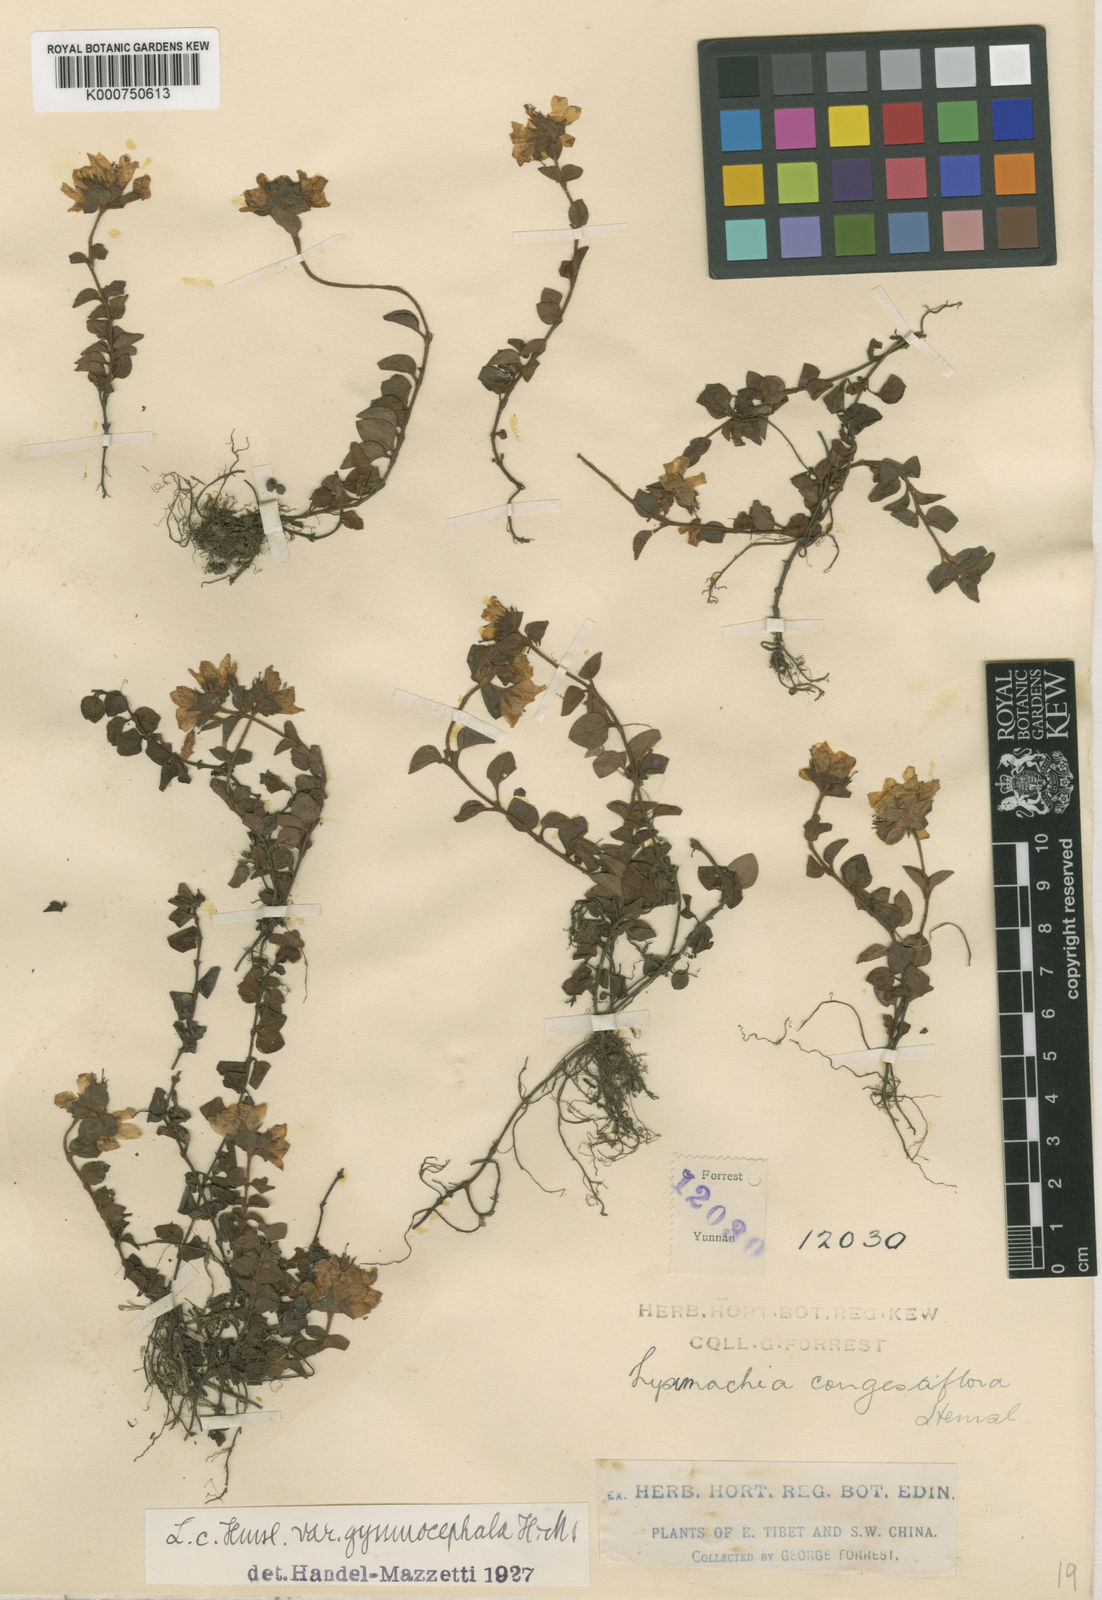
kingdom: Plantae
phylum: Tracheophyta
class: Magnoliopsida
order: Ericales
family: Primulaceae
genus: Lysimachia
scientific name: Lysimachia congestiflora
